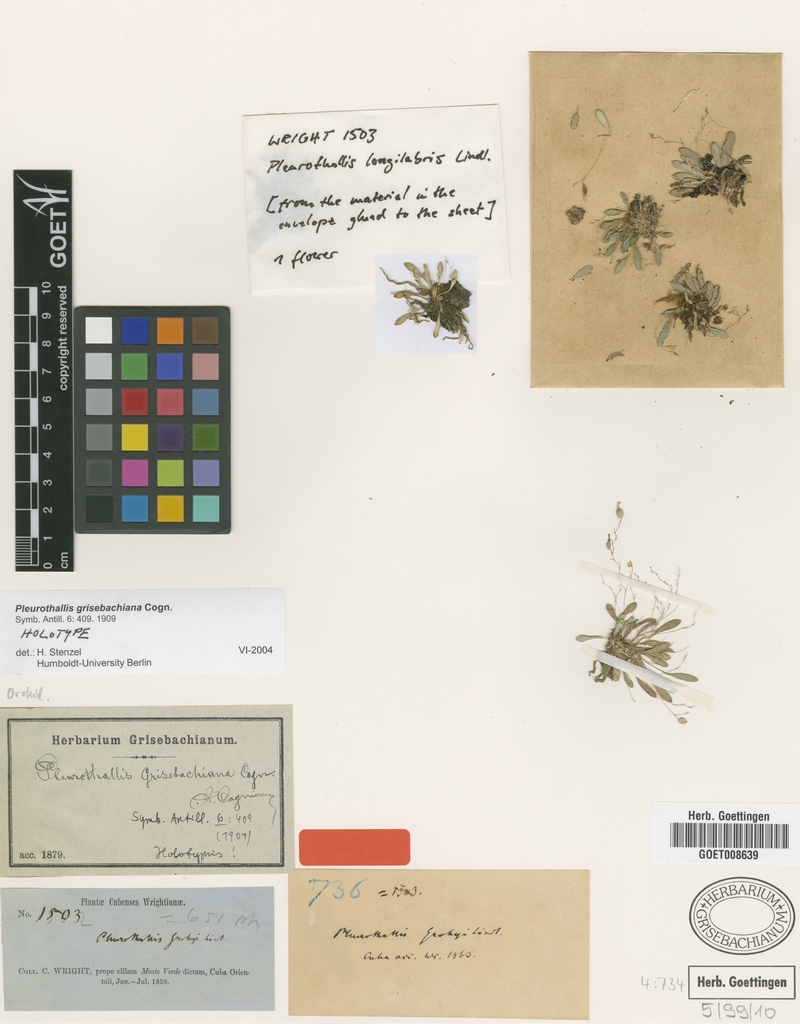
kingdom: Plantae
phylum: Tracheophyta
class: Liliopsida
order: Asparagales
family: Orchidaceae
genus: Specklinia
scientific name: Specklinia grisebachiana
